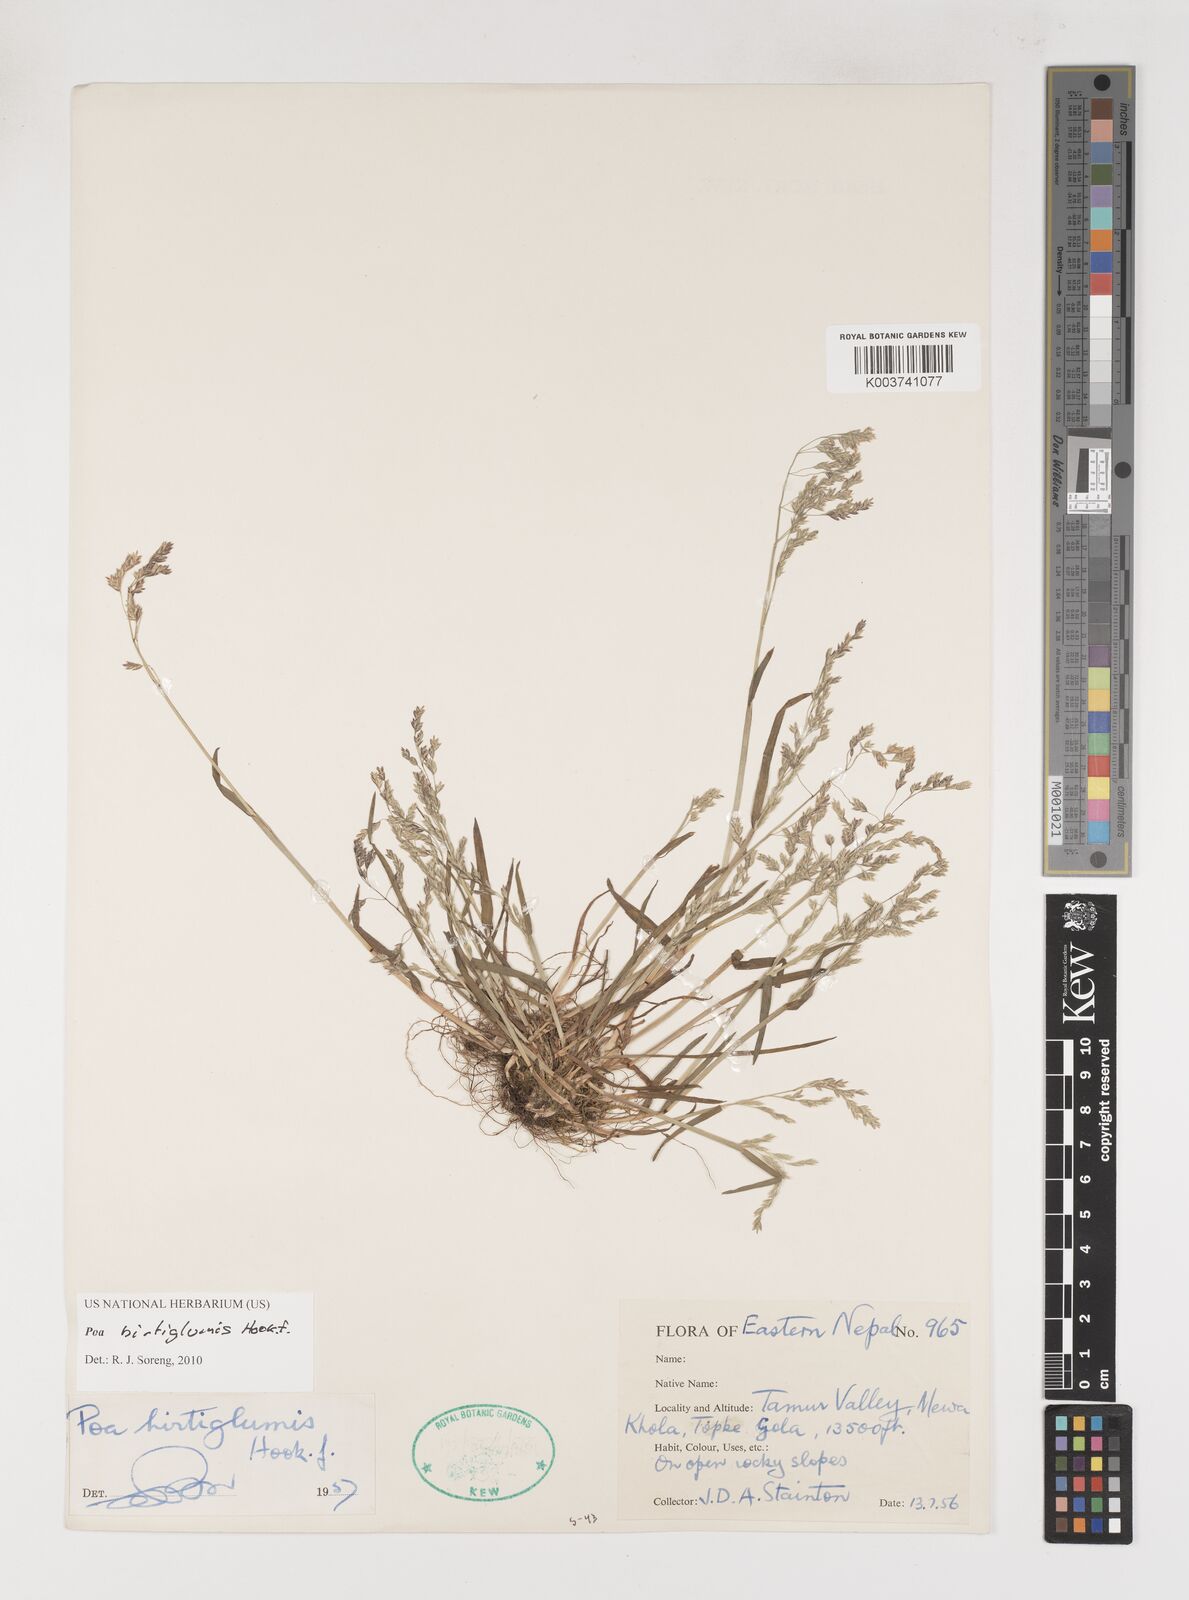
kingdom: Plantae
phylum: Tracheophyta
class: Liliopsida
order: Poales
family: Poaceae
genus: Poa
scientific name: Poa hirtiglumis
